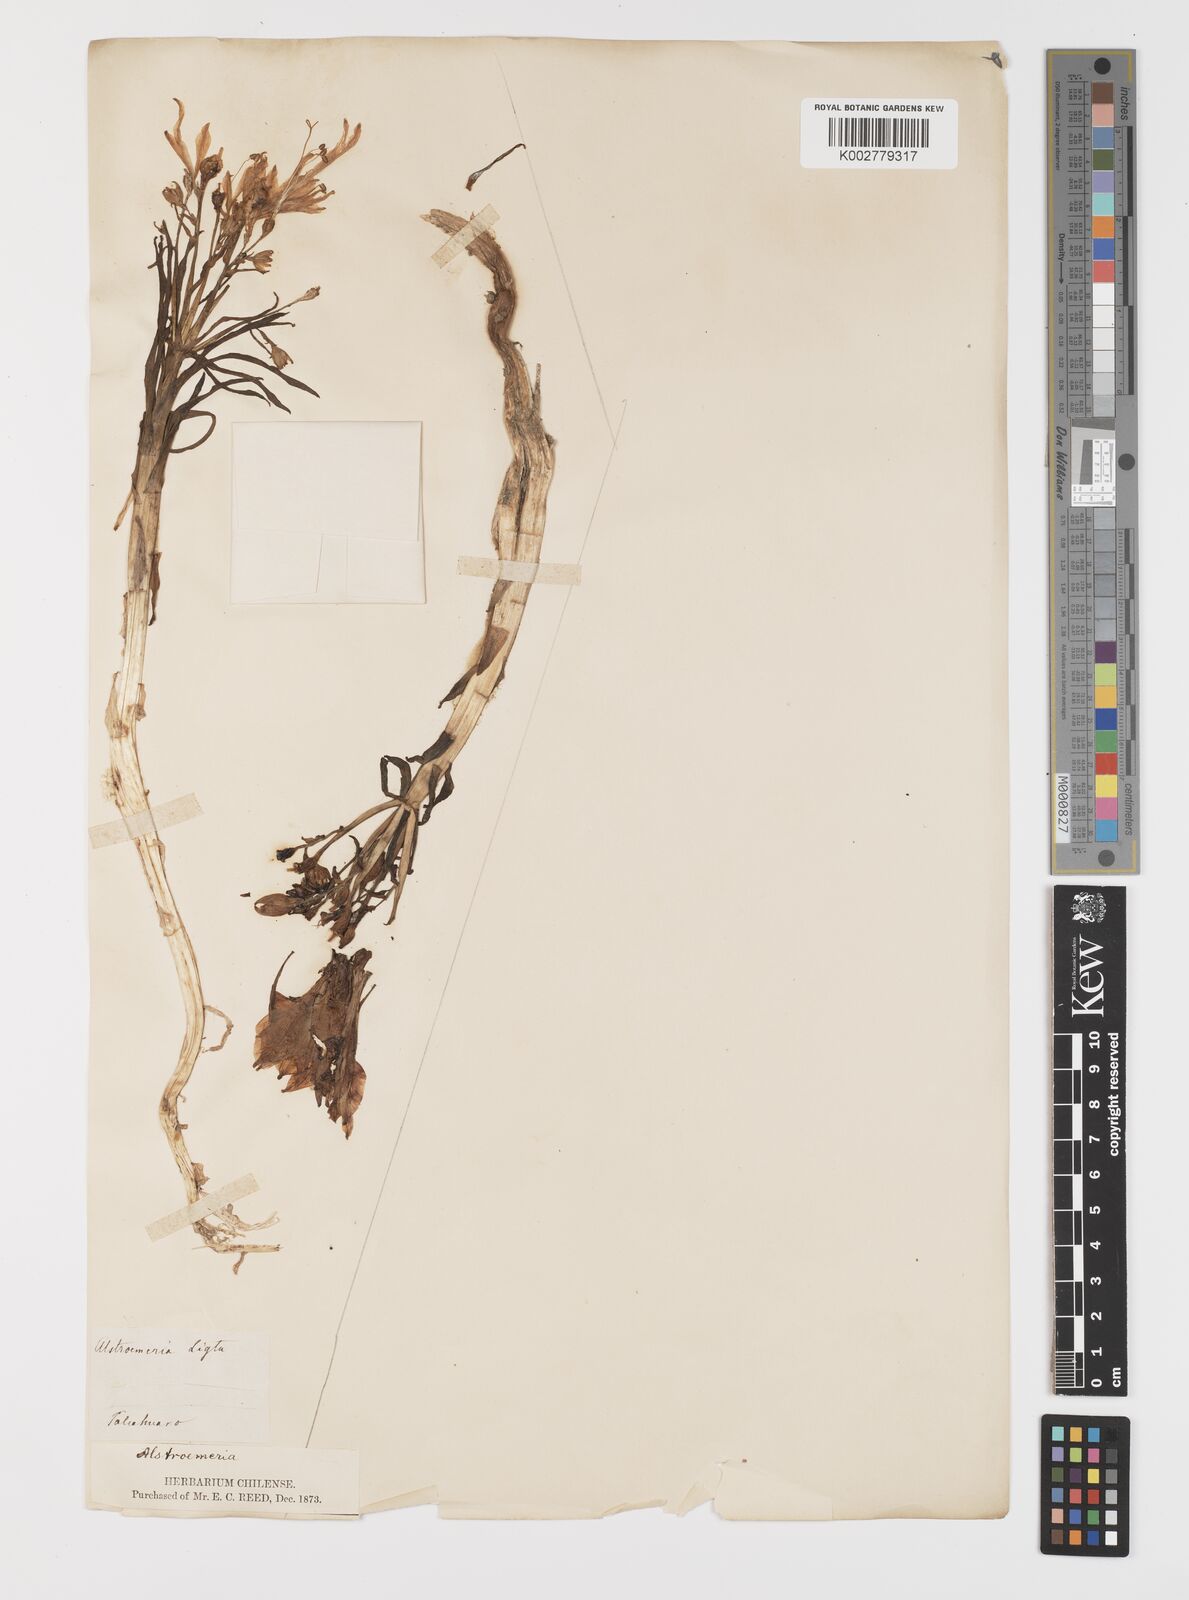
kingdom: Plantae
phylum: Tracheophyta
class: Liliopsida
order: Liliales
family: Alstroemeriaceae
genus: Alstroemeria
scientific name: Alstroemeria ligtu
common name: St. martin's-flower
